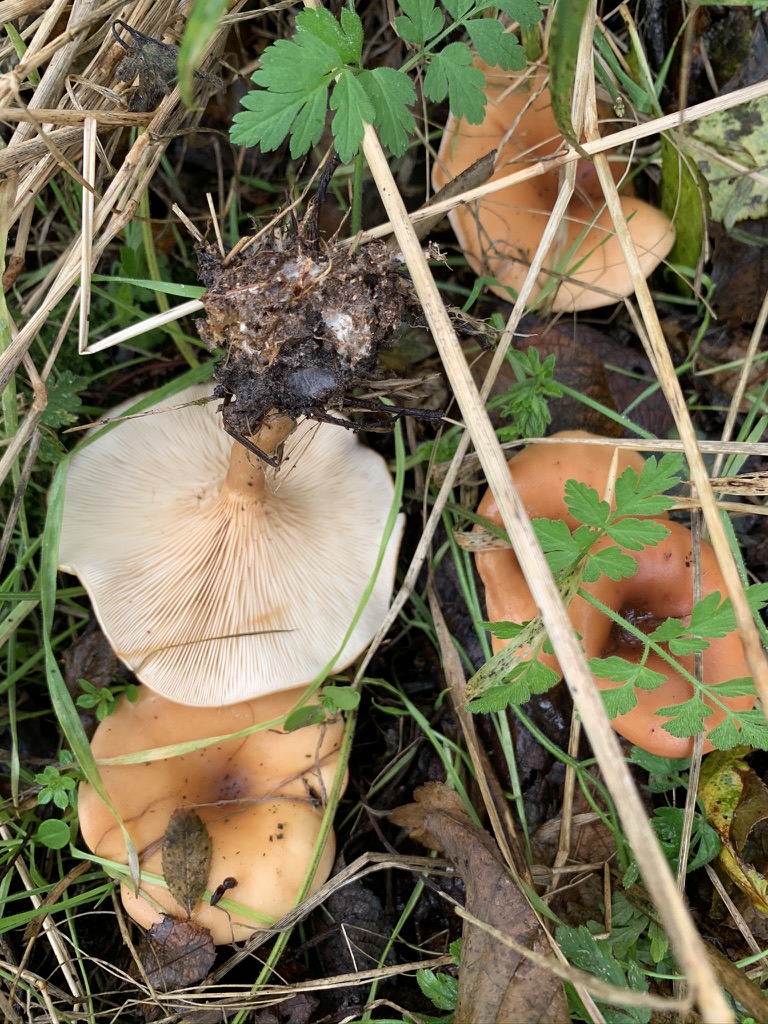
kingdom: Fungi
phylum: Basidiomycota
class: Agaricomycetes
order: Agaricales
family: Tricholomataceae
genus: Paralepista
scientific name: Paralepista flaccida
